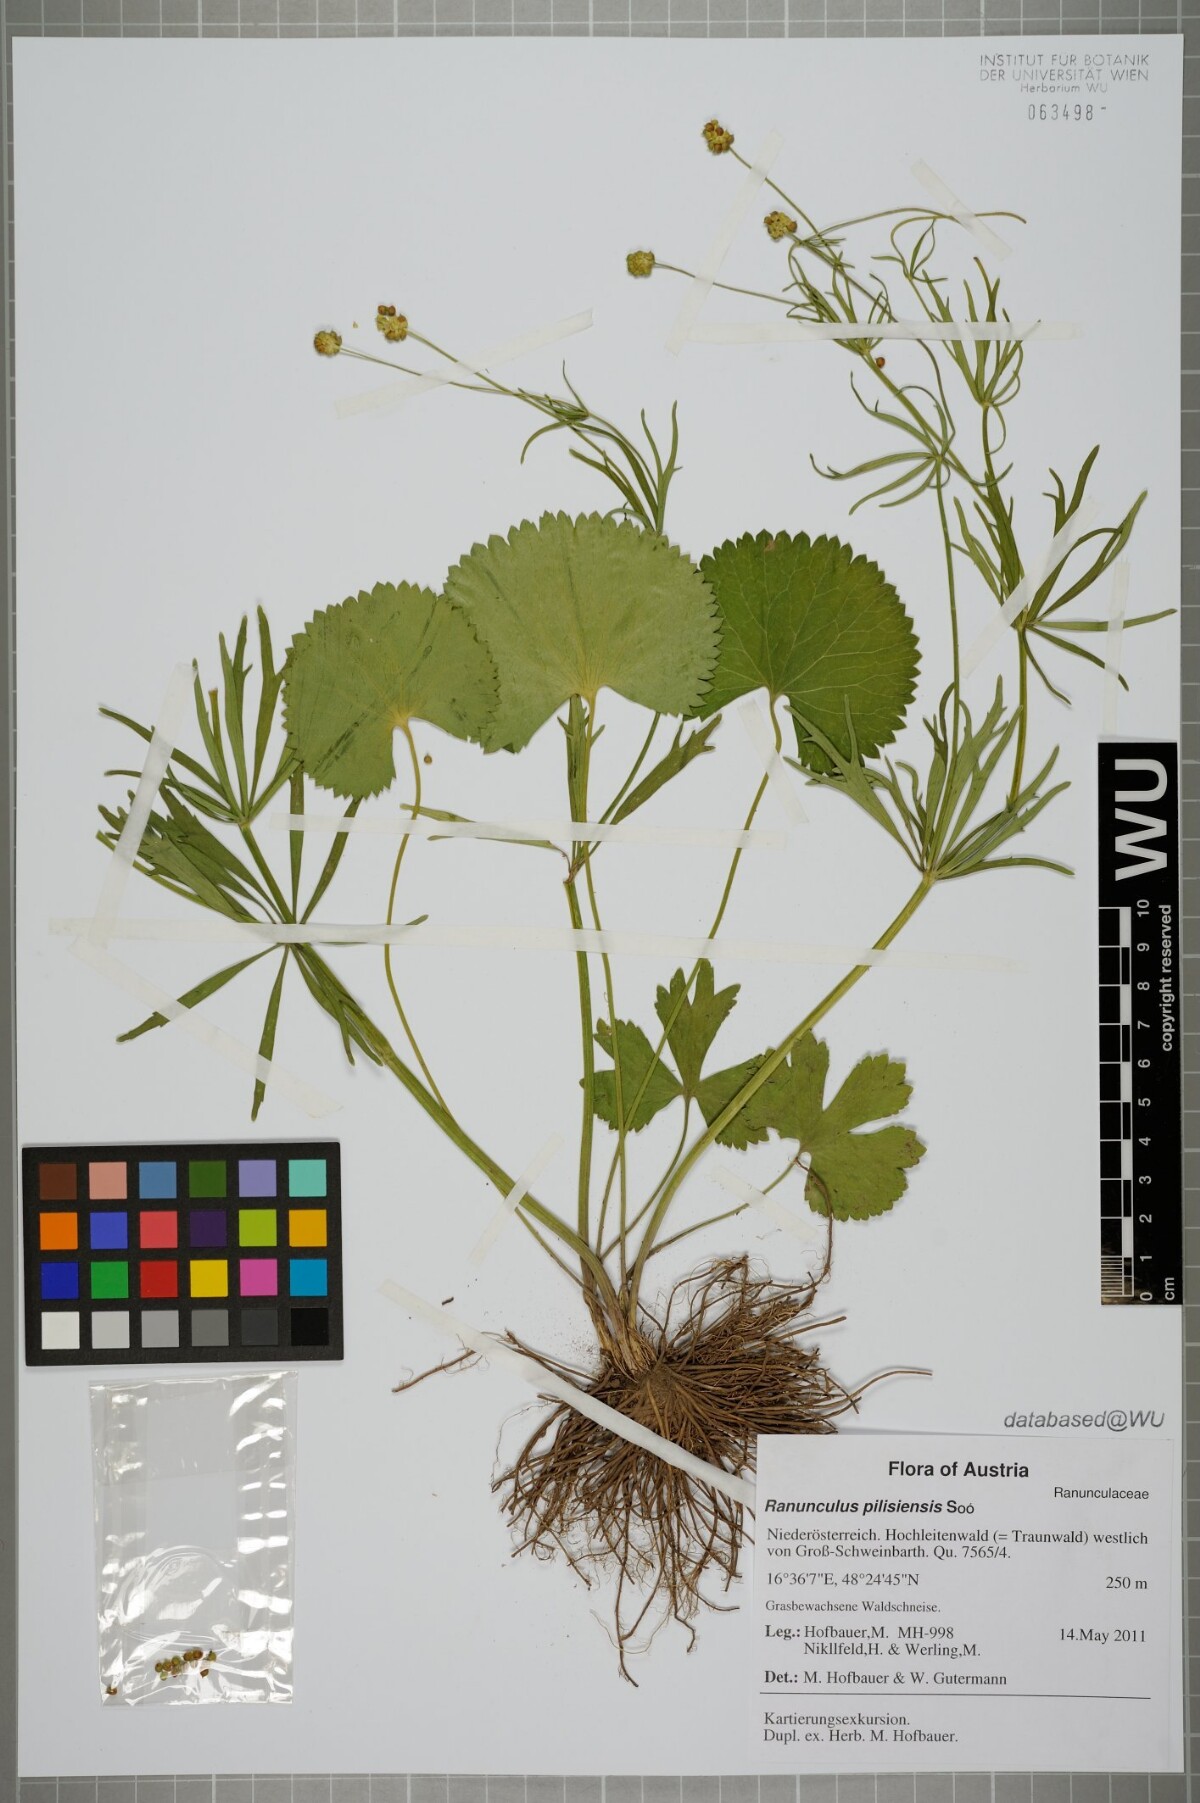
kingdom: Plantae
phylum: Tracheophyta
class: Magnoliopsida
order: Ranunculales
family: Ranunculaceae
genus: Ranunculus
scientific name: Ranunculus pilisiensis
